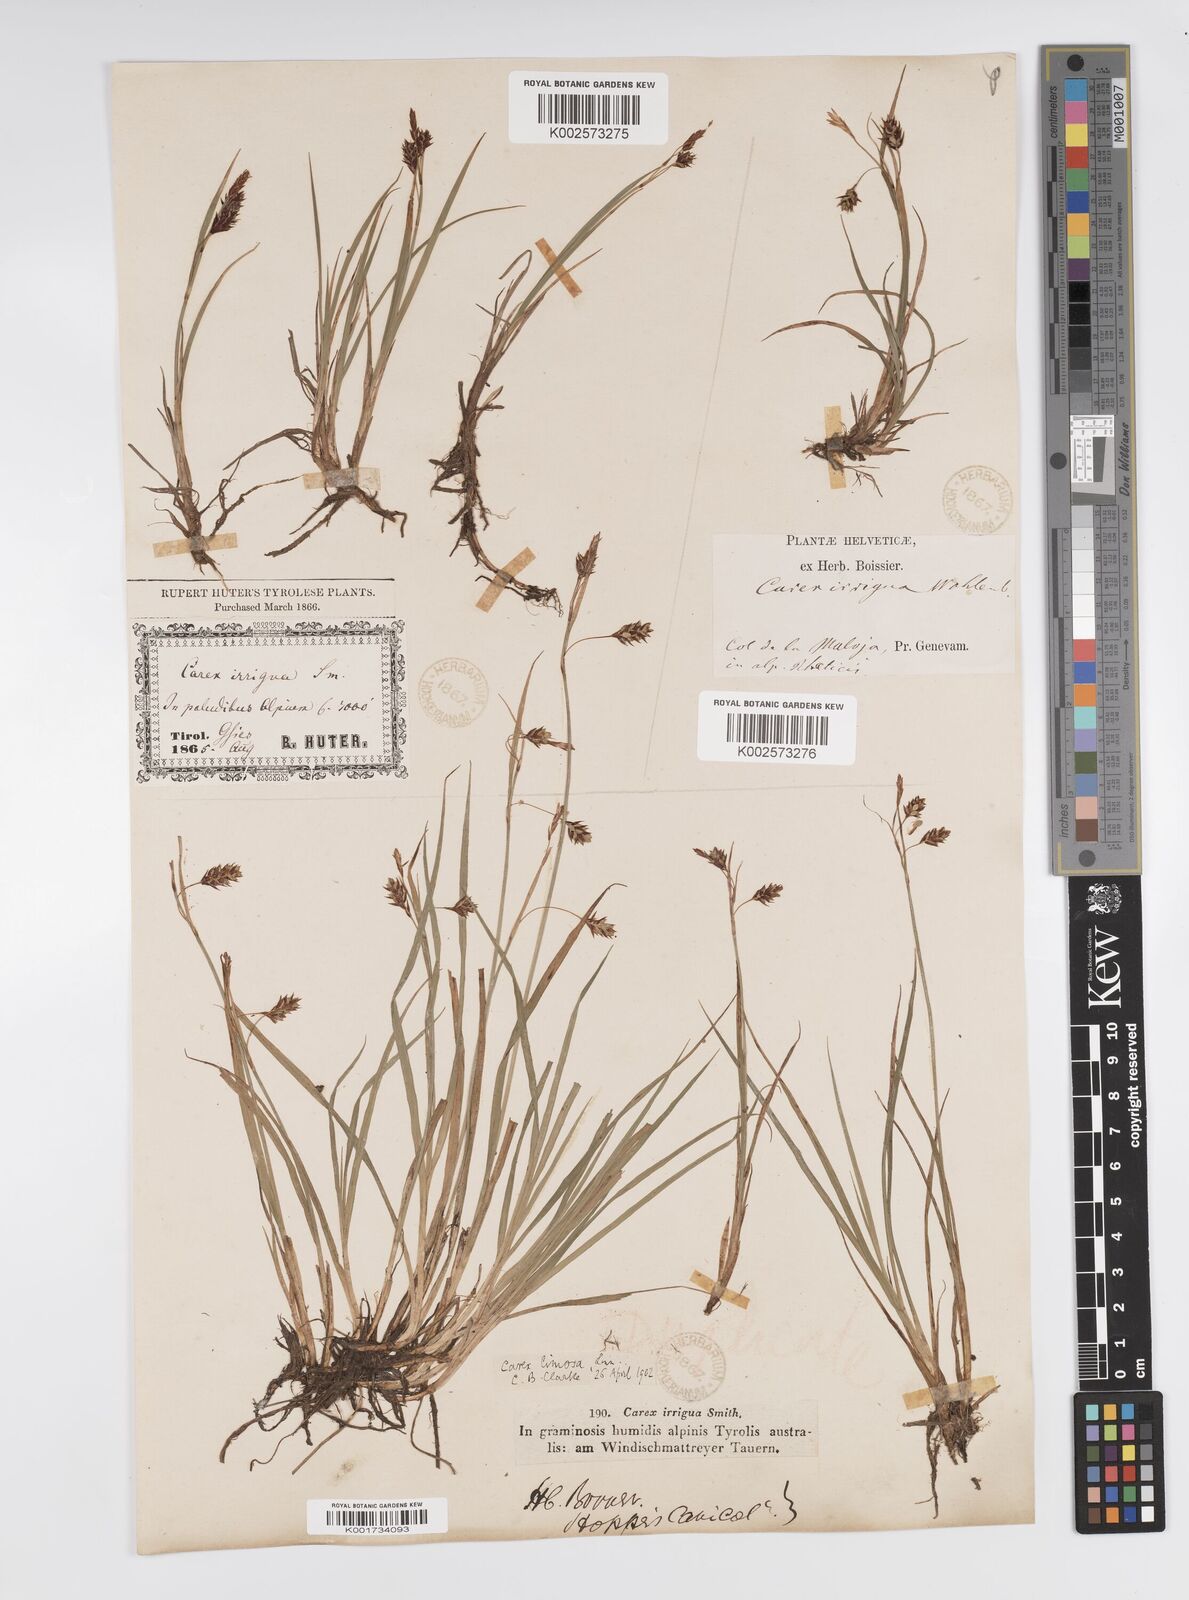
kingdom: Plantae
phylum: Tracheophyta
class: Liliopsida
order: Poales
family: Cyperaceae
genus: Carex
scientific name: Carex magellanica
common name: Bog sedge
